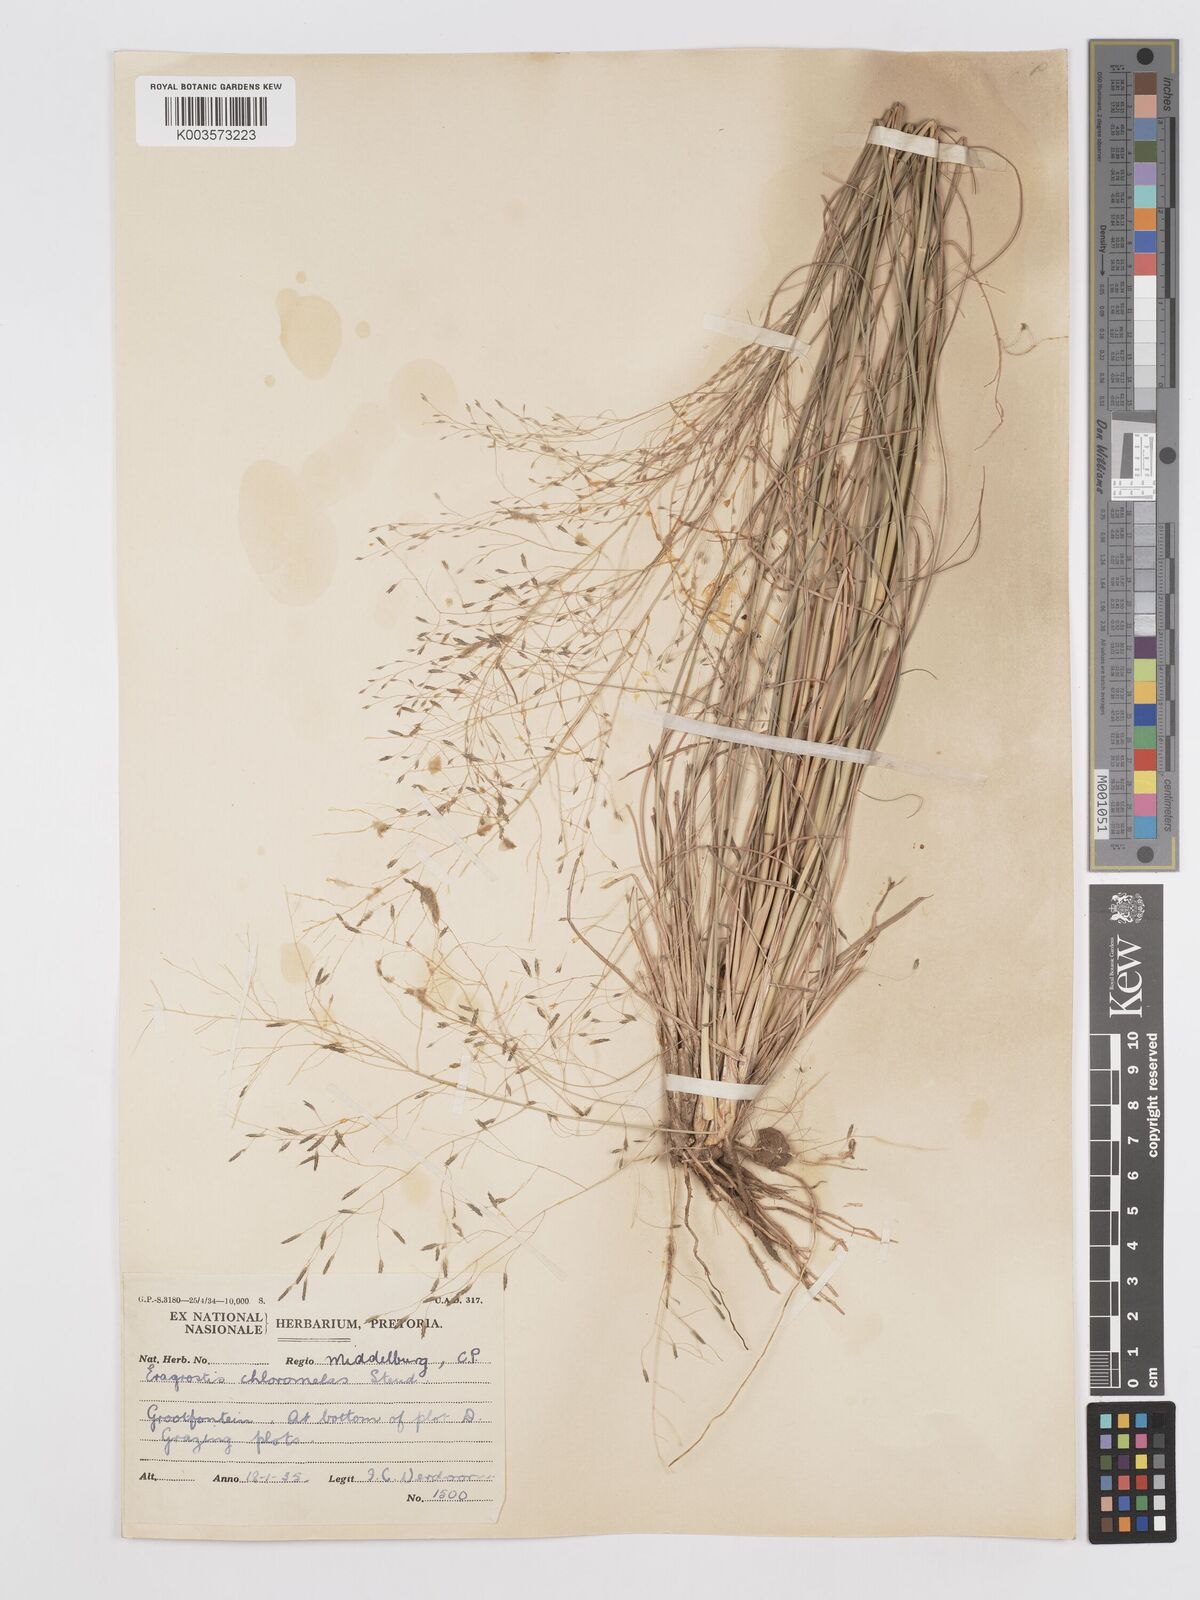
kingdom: Plantae
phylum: Tracheophyta
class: Liliopsida
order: Poales
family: Poaceae
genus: Eragrostis
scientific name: Eragrostis curvula
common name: African love-grass
